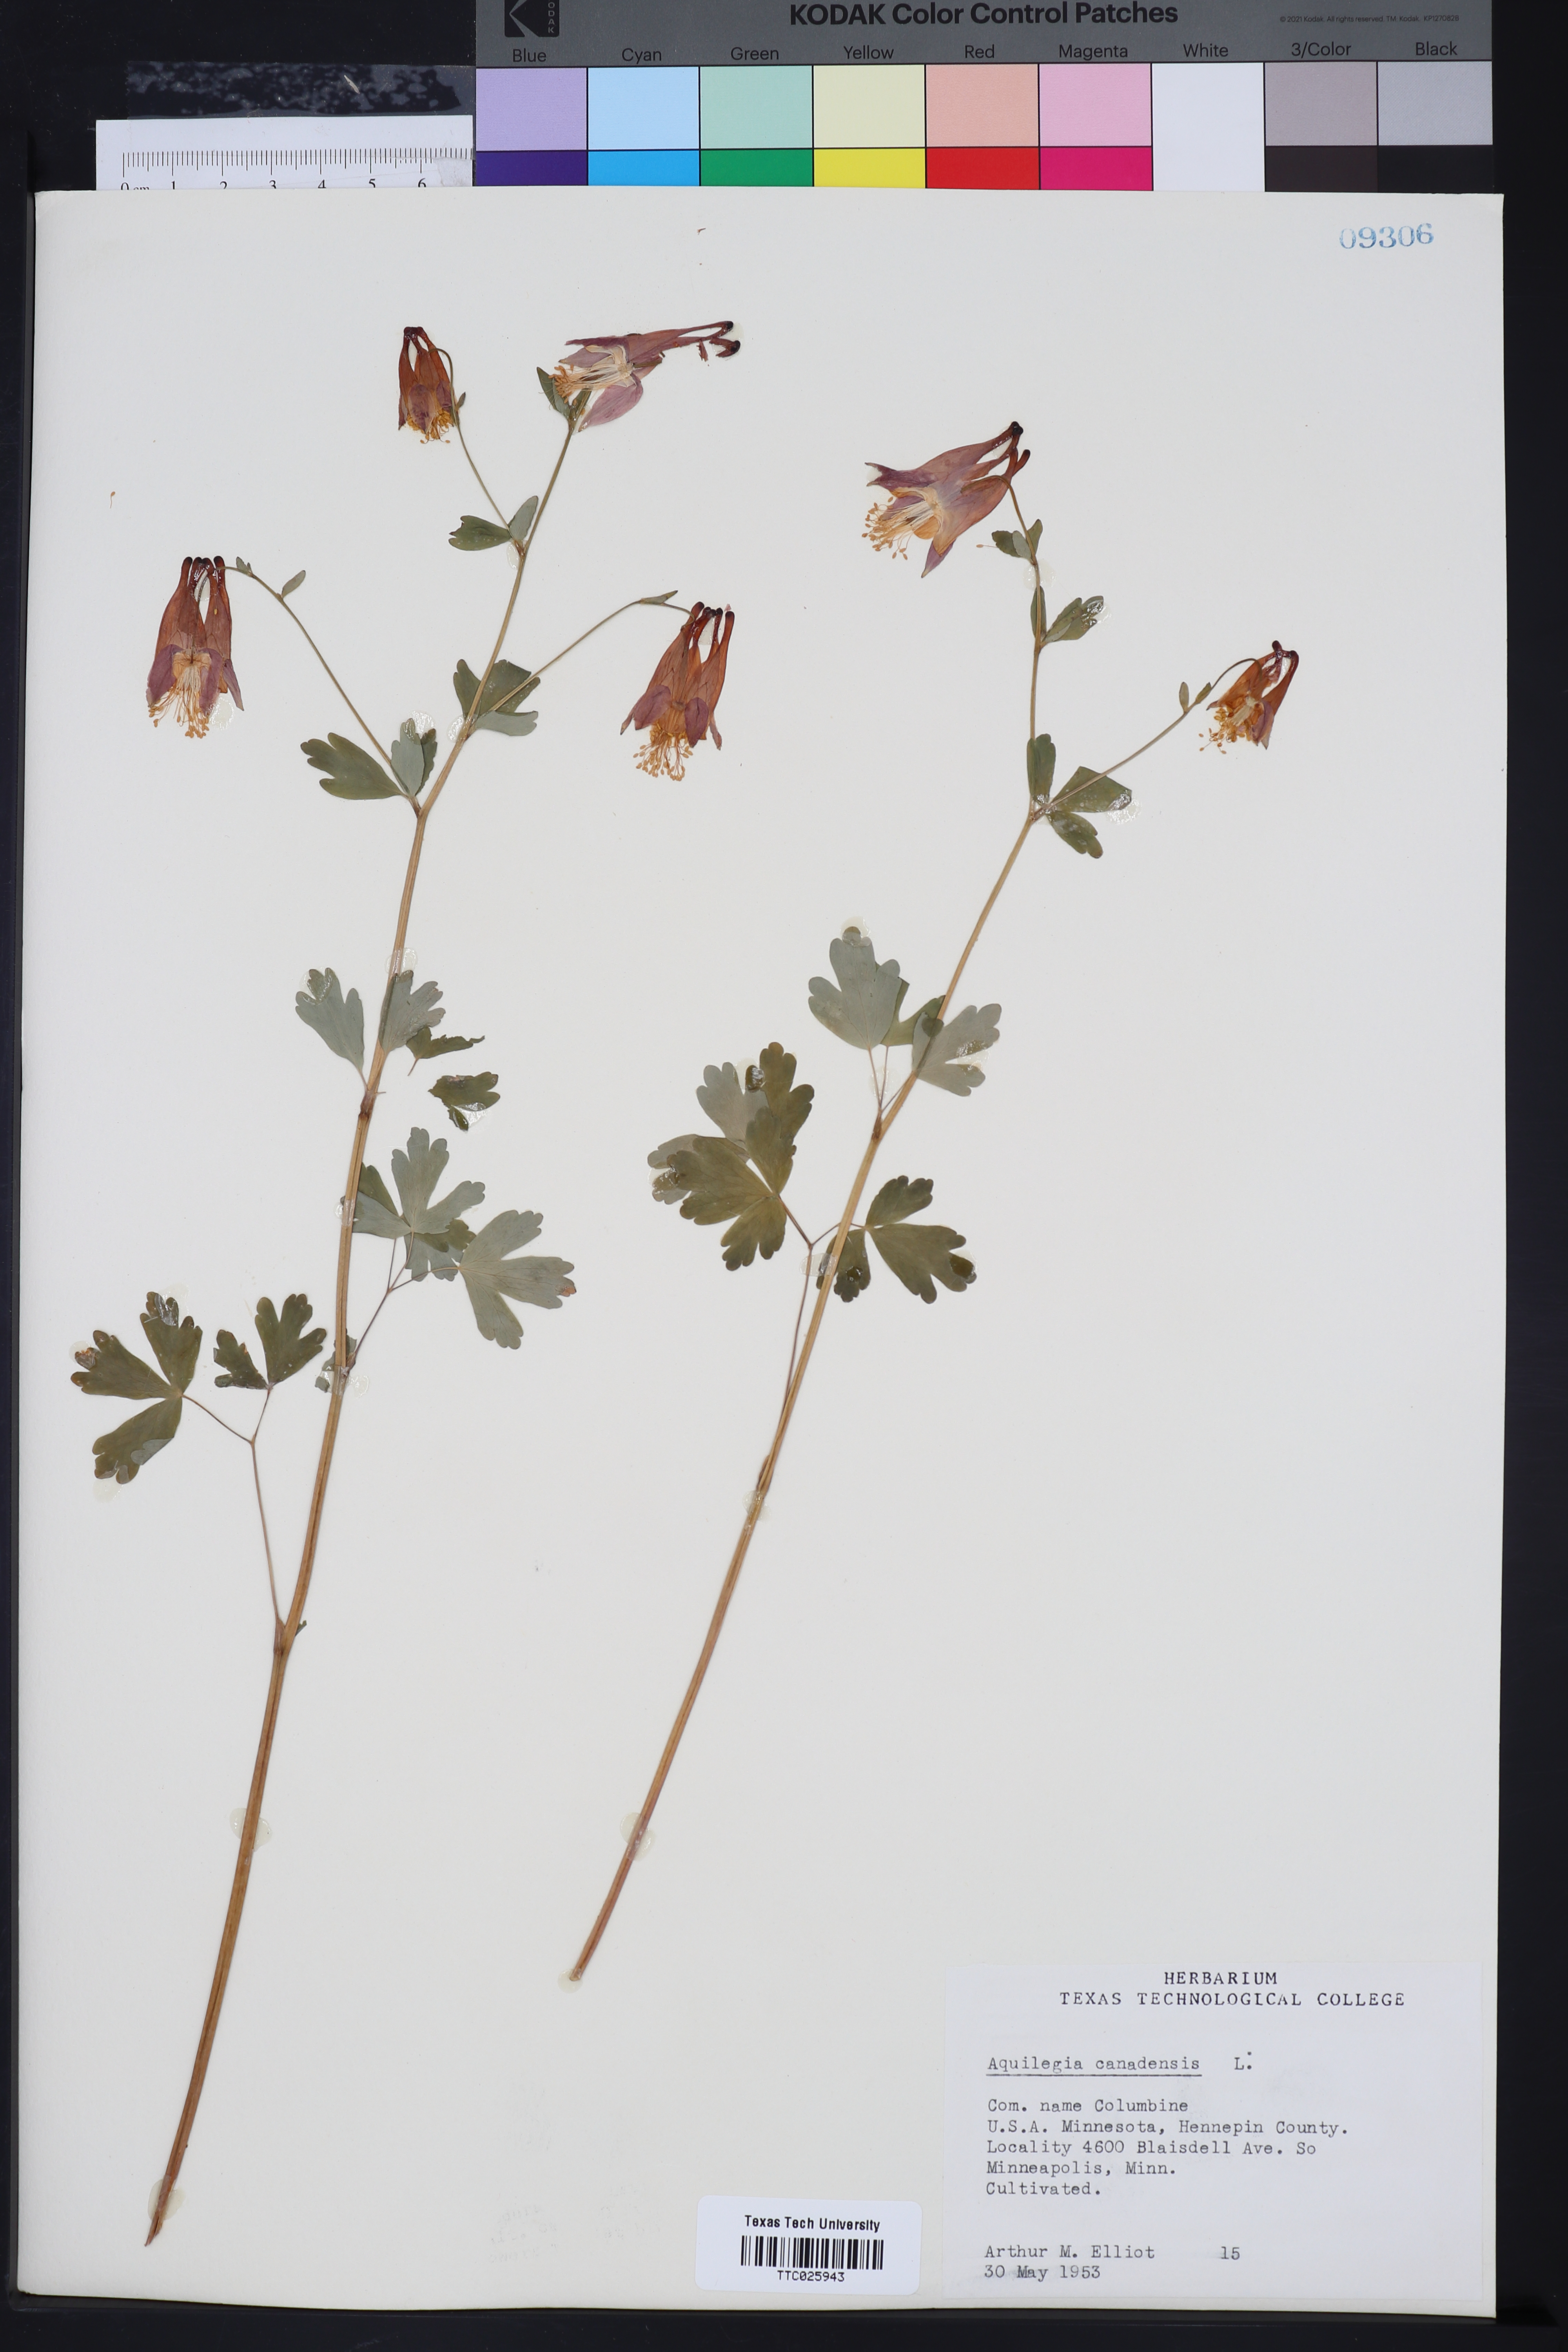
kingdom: Plantae
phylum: Tracheophyta
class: Magnoliopsida
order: Ranunculales
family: Ranunculaceae
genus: Aquilegia
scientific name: Aquilegia canadensis
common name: American columbine
